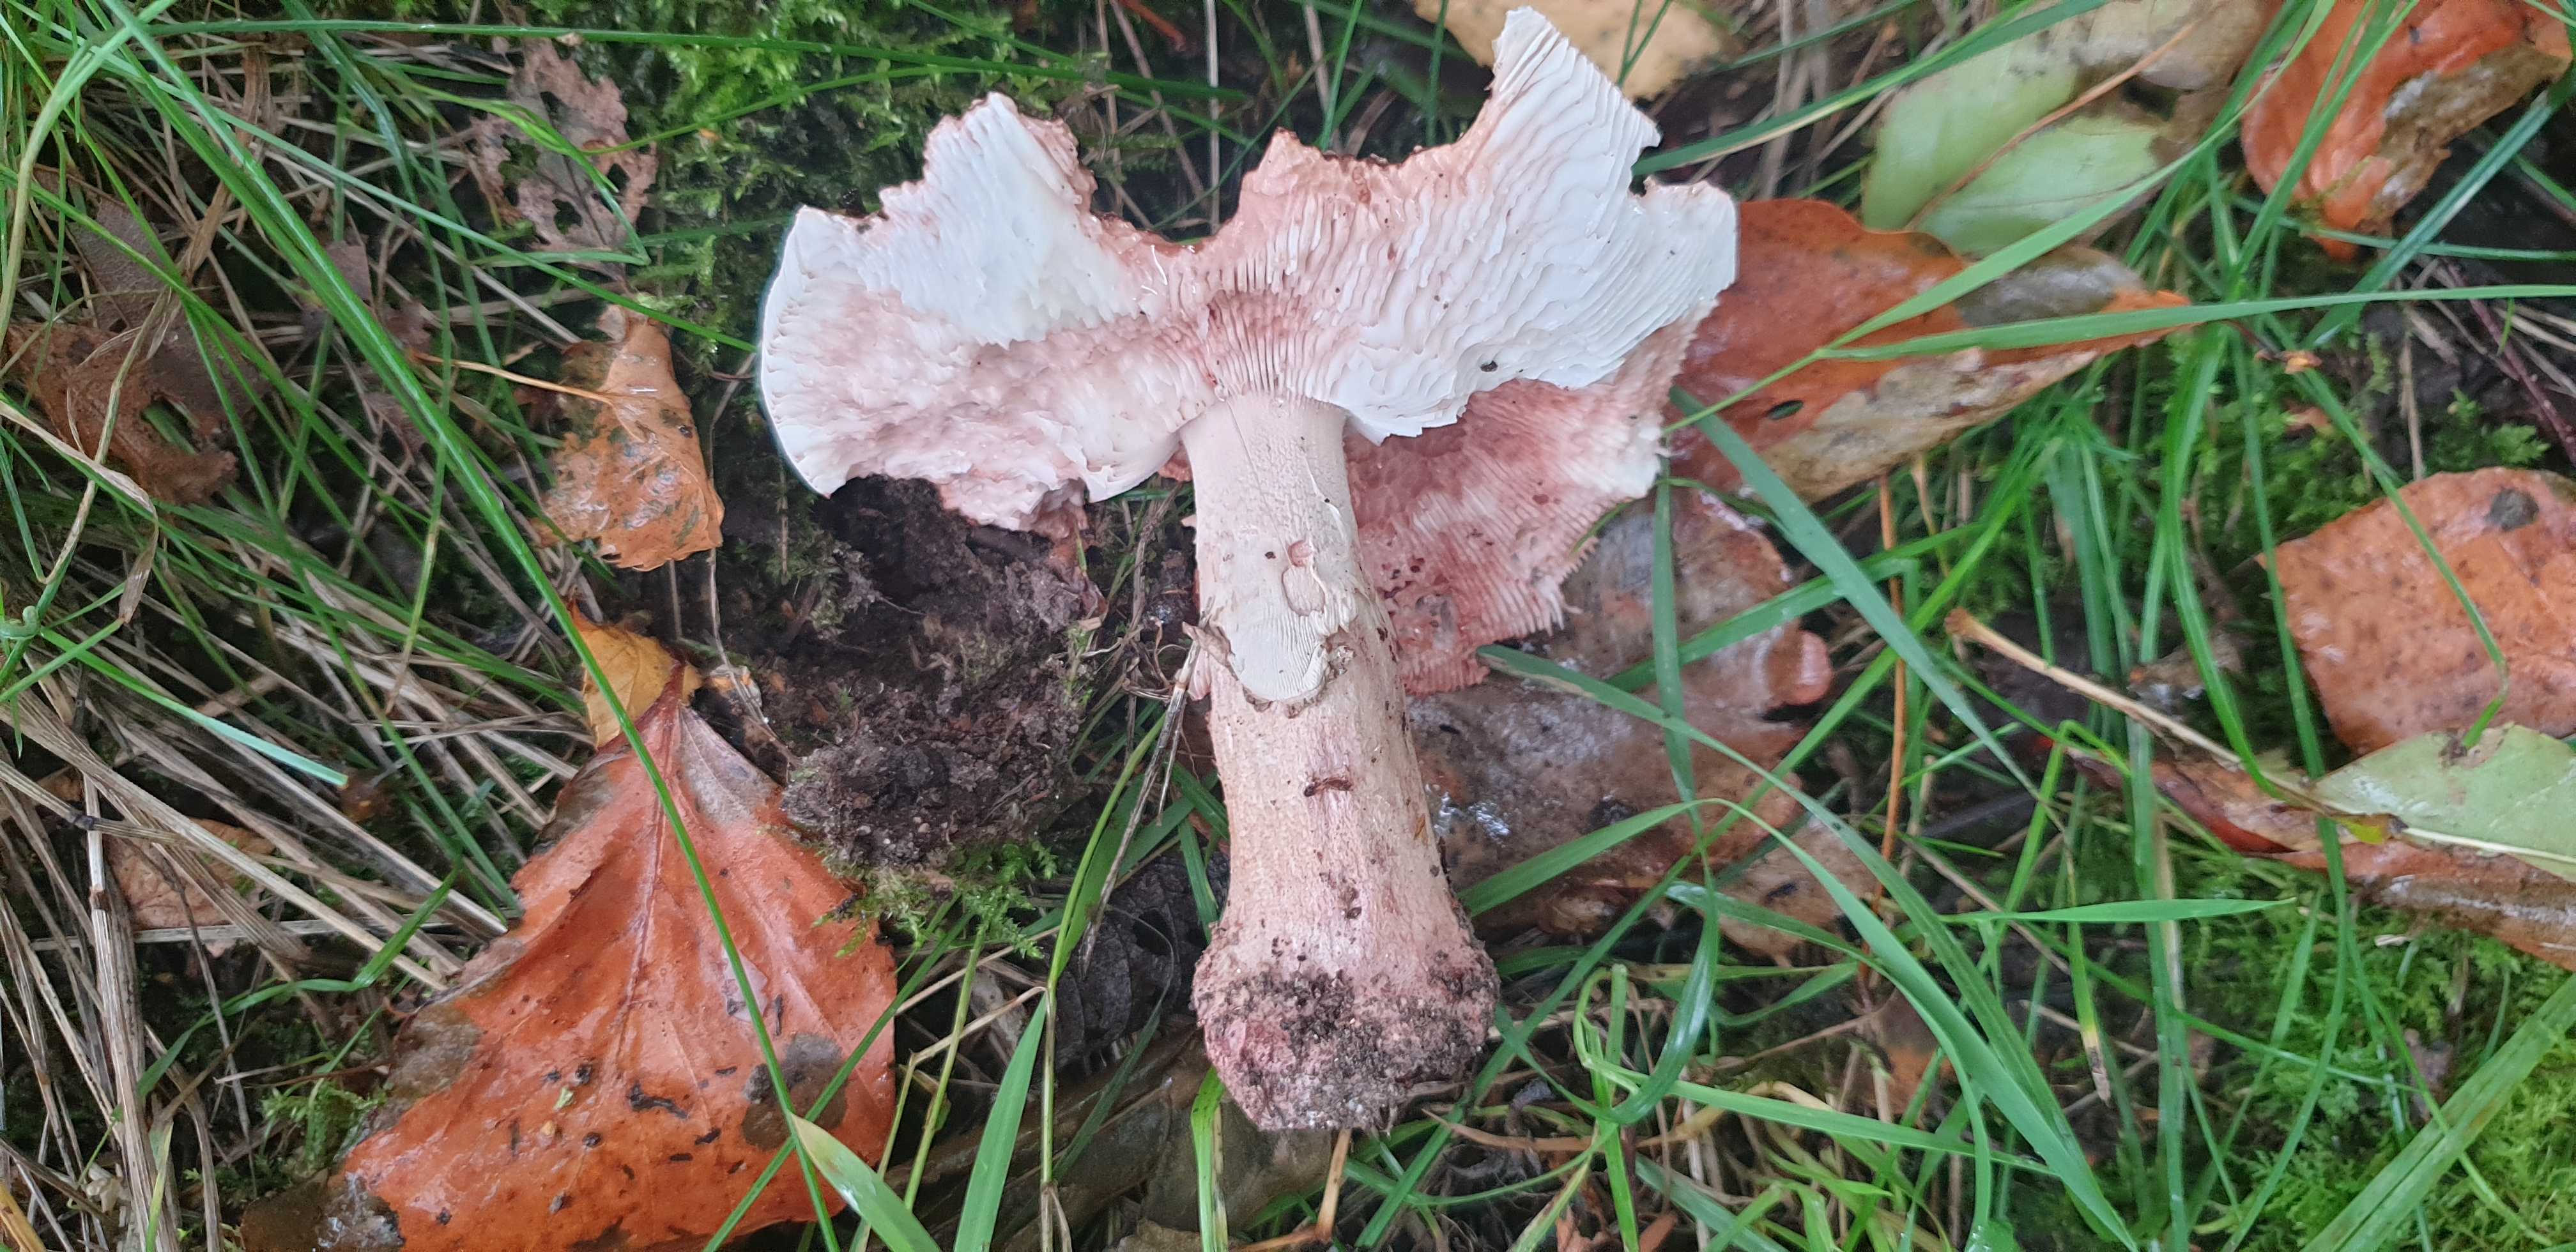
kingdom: Fungi
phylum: Basidiomycota
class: Agaricomycetes
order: Agaricales
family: Amanitaceae
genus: Amanita
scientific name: Amanita rubescens
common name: rødmende fluesvamp
